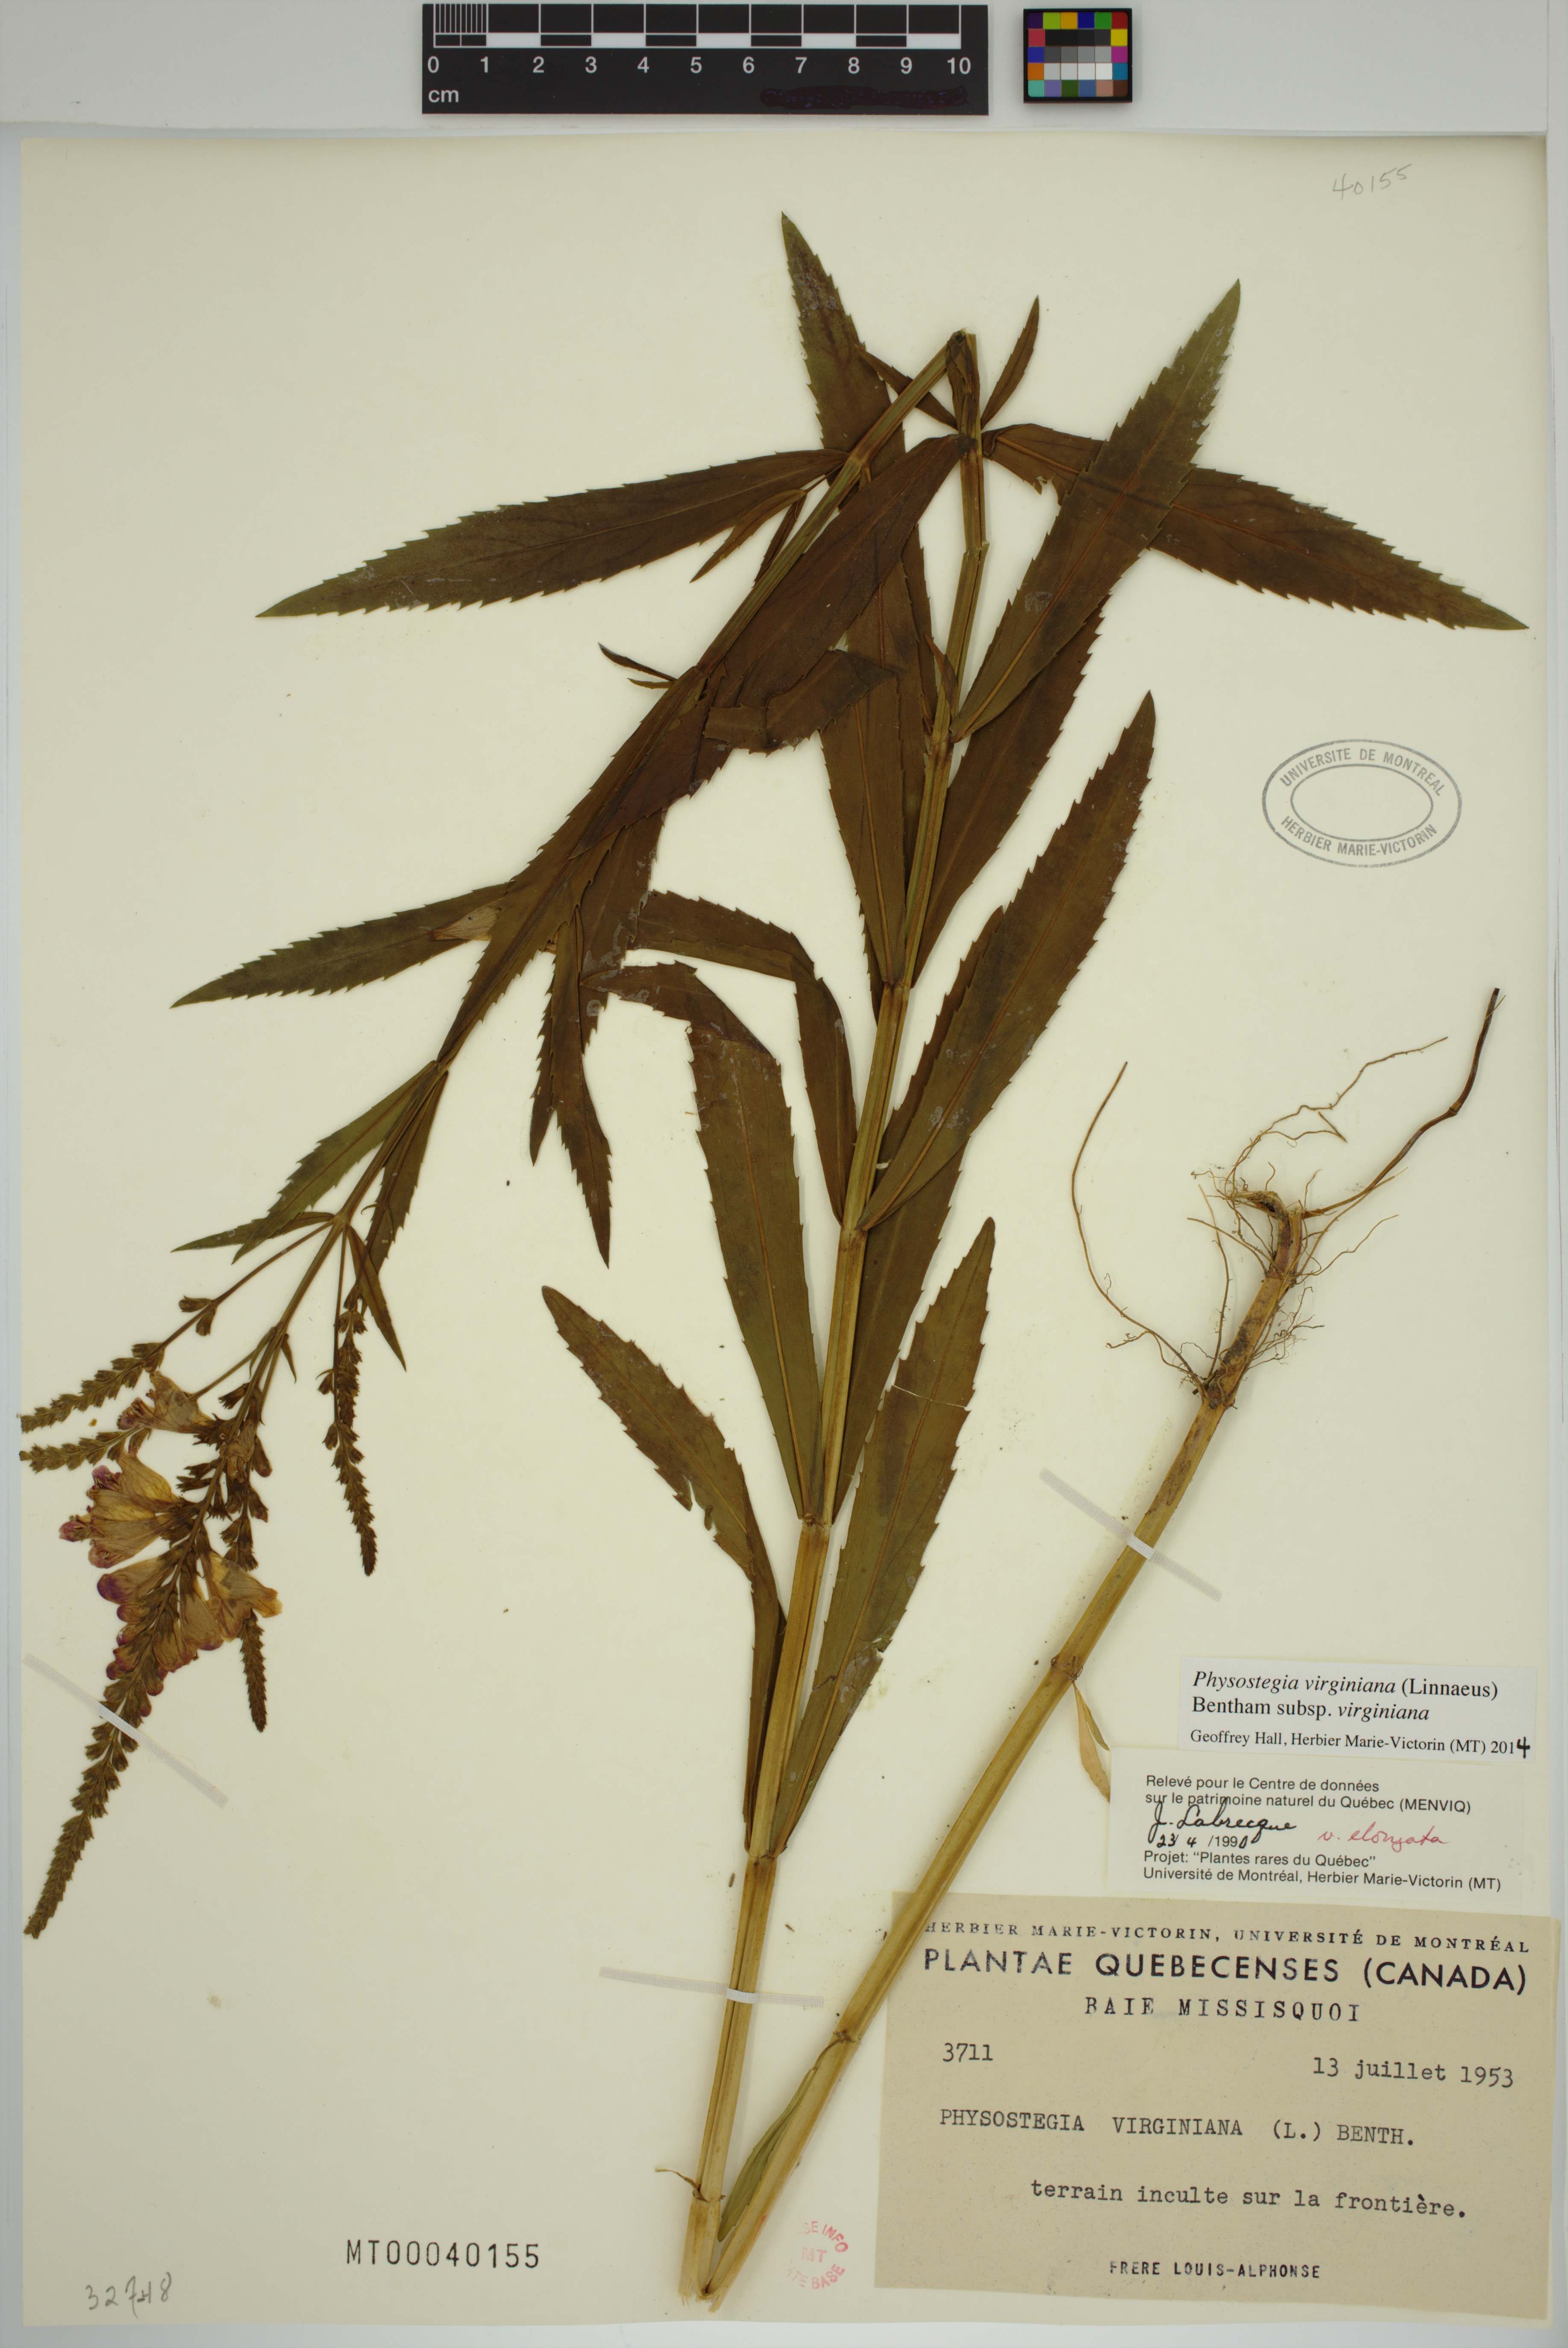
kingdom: Plantae
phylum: Tracheophyta
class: Magnoliopsida
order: Lamiales
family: Lamiaceae
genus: Physostegia
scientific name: Physostegia virginiana
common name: Obedient-plant
